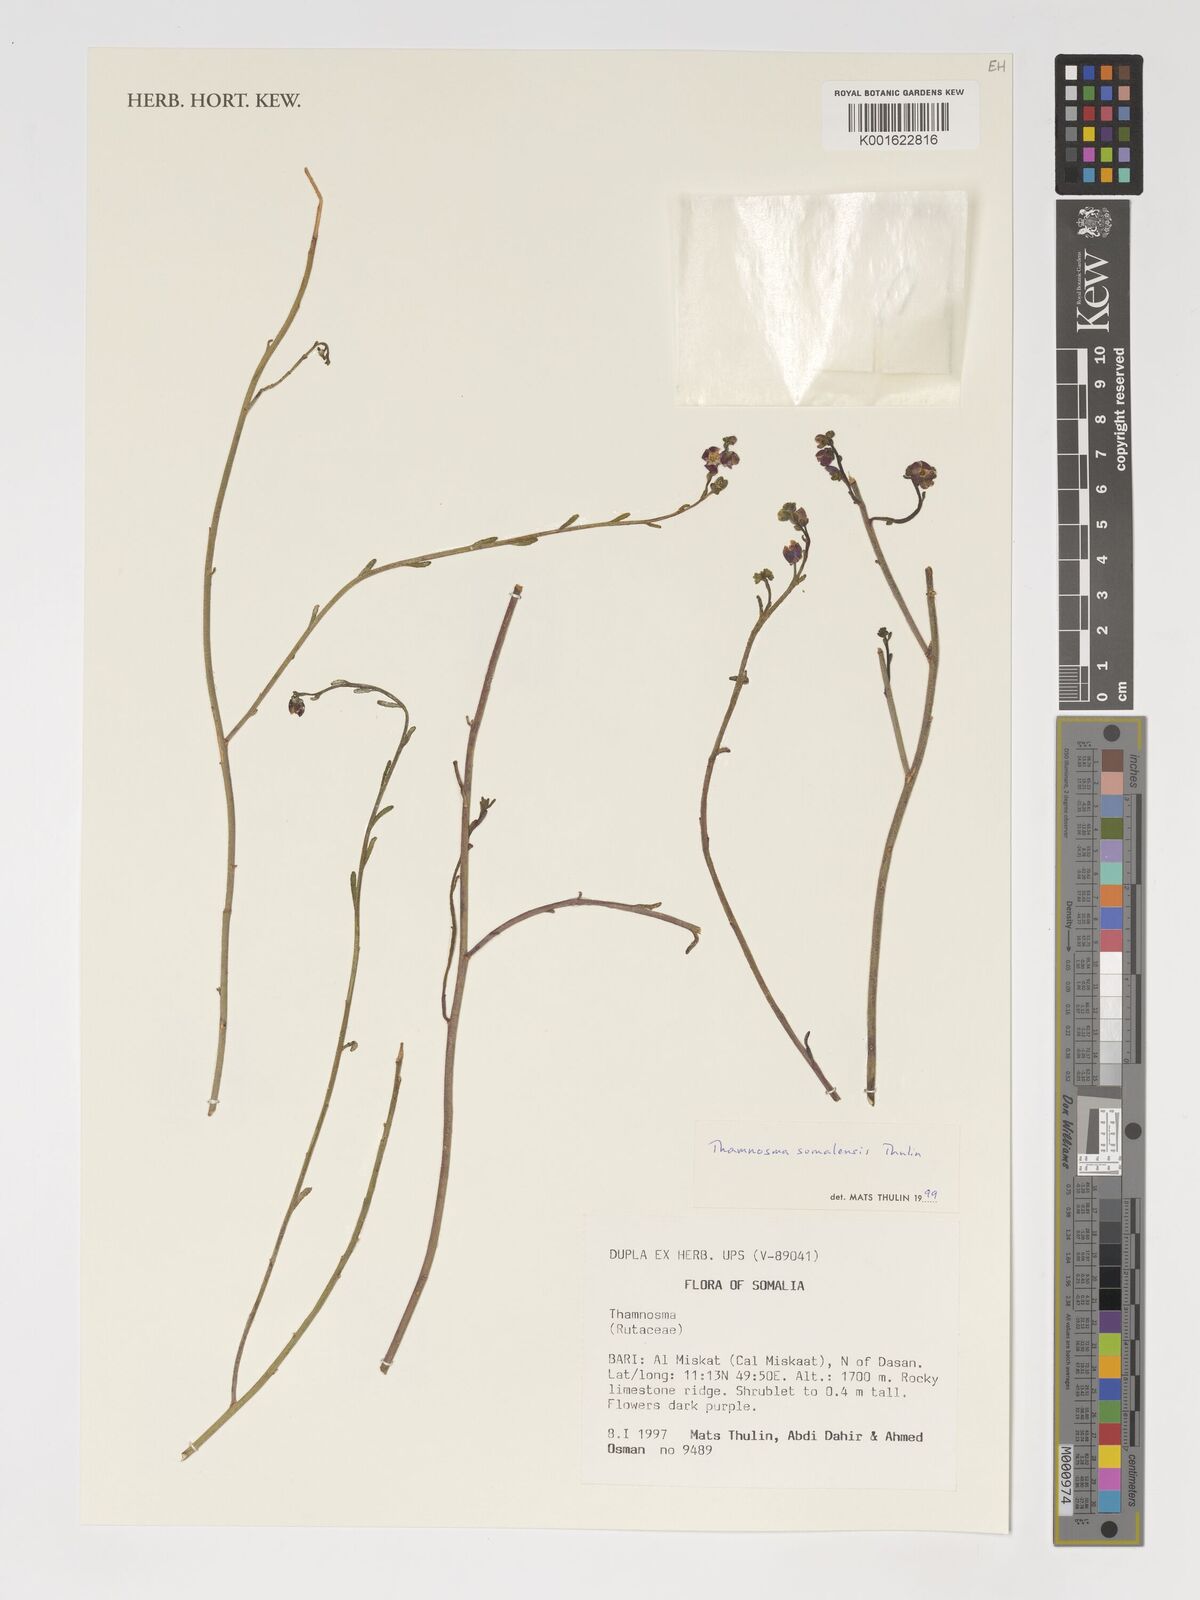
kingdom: Plantae
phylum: Tracheophyta
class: Magnoliopsida
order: Sapindales
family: Rutaceae
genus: Thamnosma
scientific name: Thamnosma somalensis
